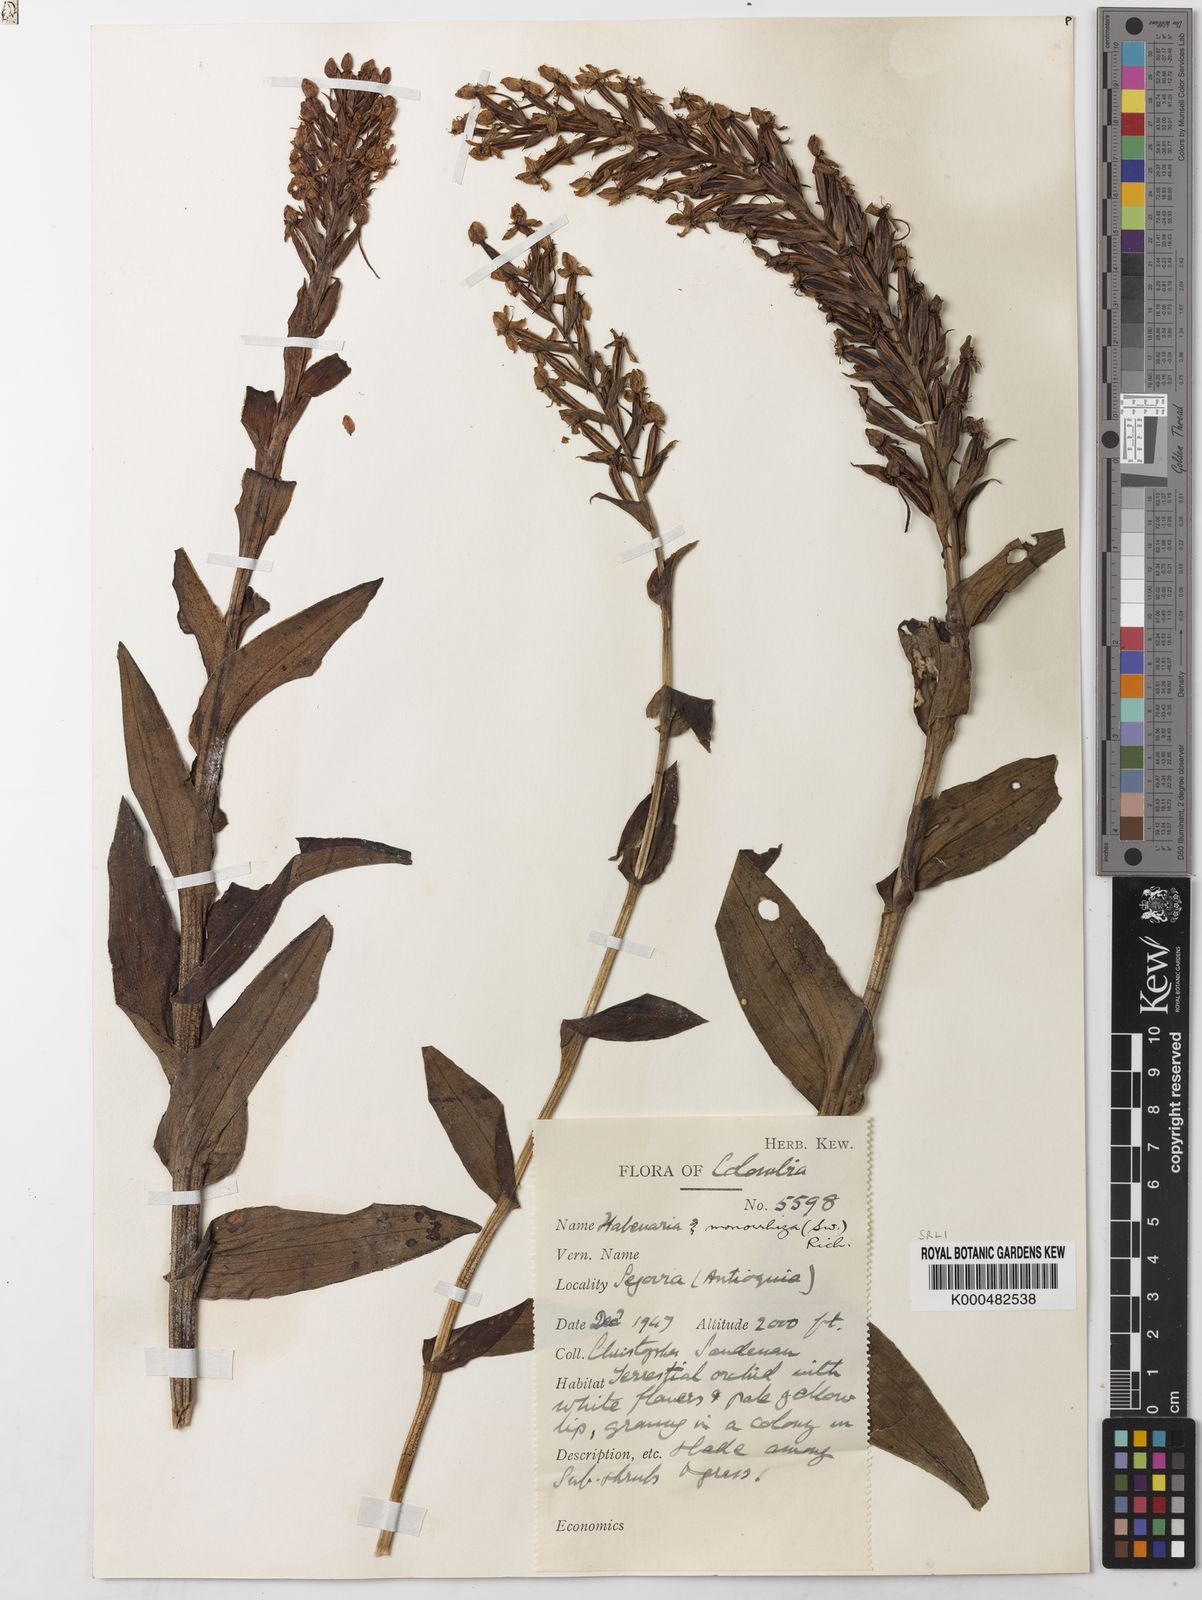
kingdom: Plantae
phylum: Tracheophyta
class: Liliopsida
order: Asparagales
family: Orchidaceae
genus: Habenaria
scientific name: Habenaria monorrhiza
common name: Tropical bog orchid
